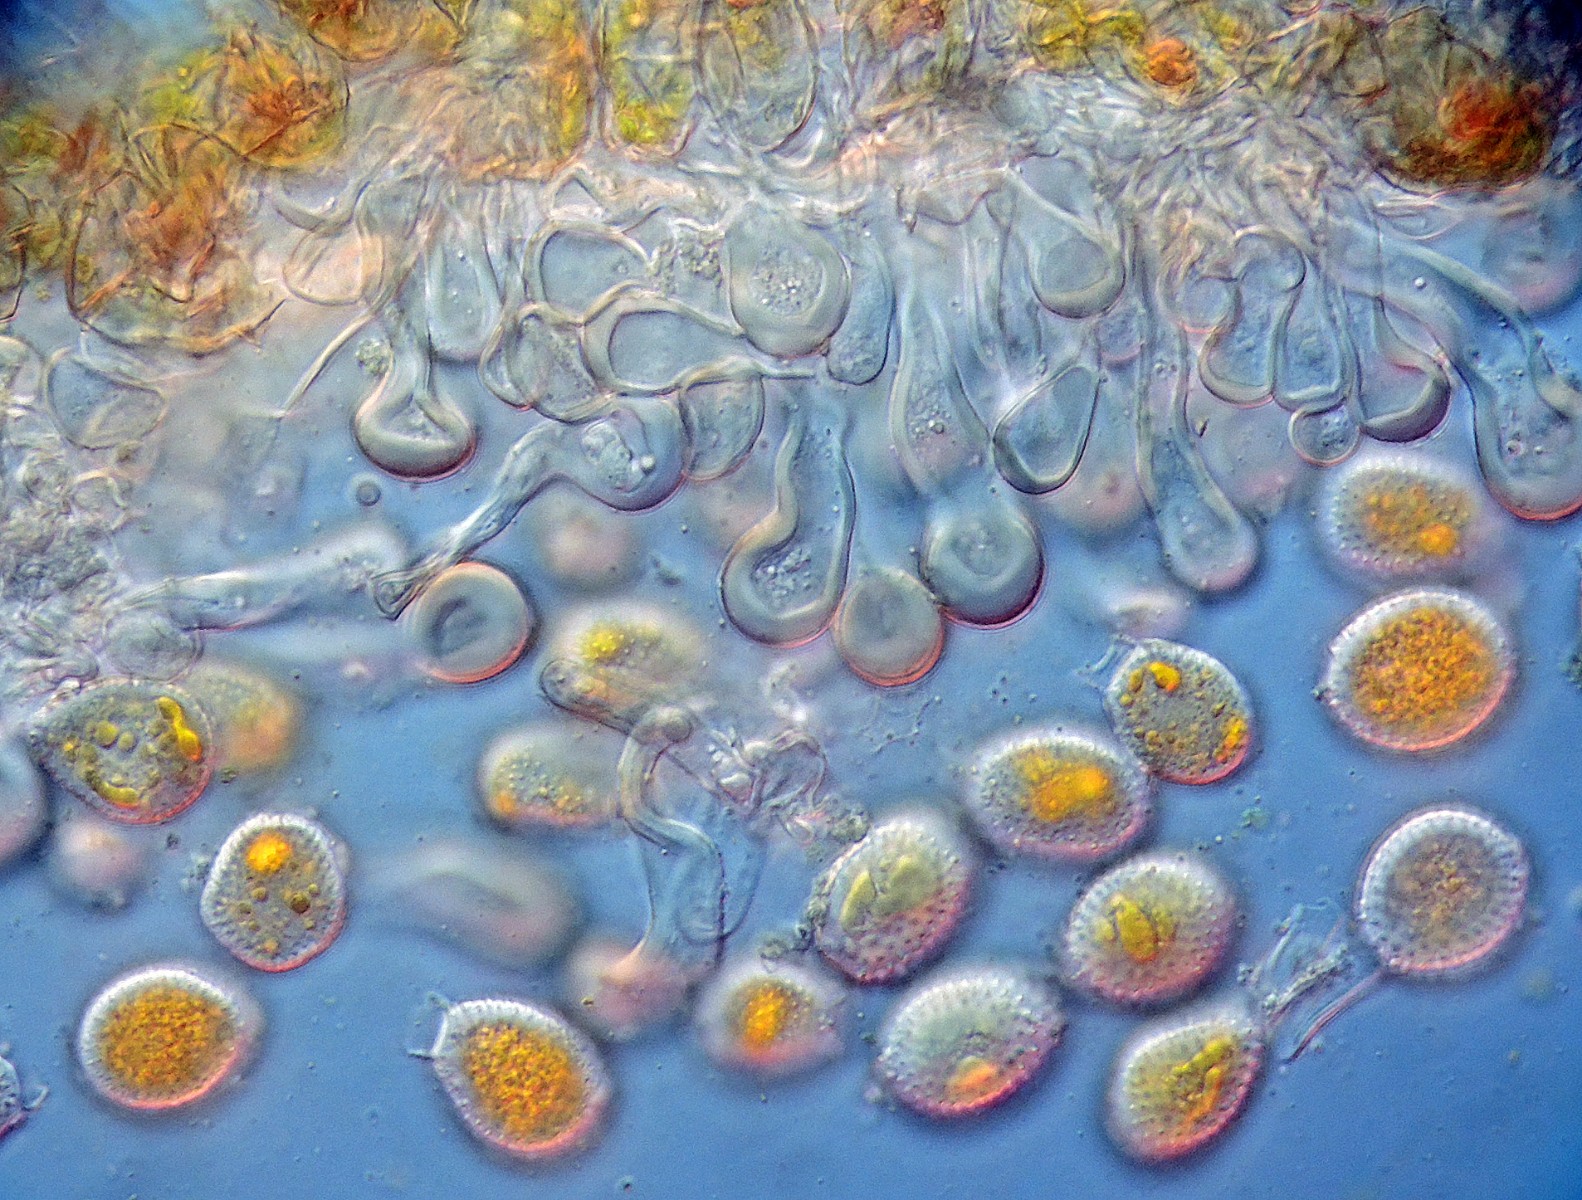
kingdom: Fungi
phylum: Basidiomycota
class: Pucciniomycetes
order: Pucciniales
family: Pucciniaceae
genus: Puccinia
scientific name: Puccinia
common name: tvecellerust
